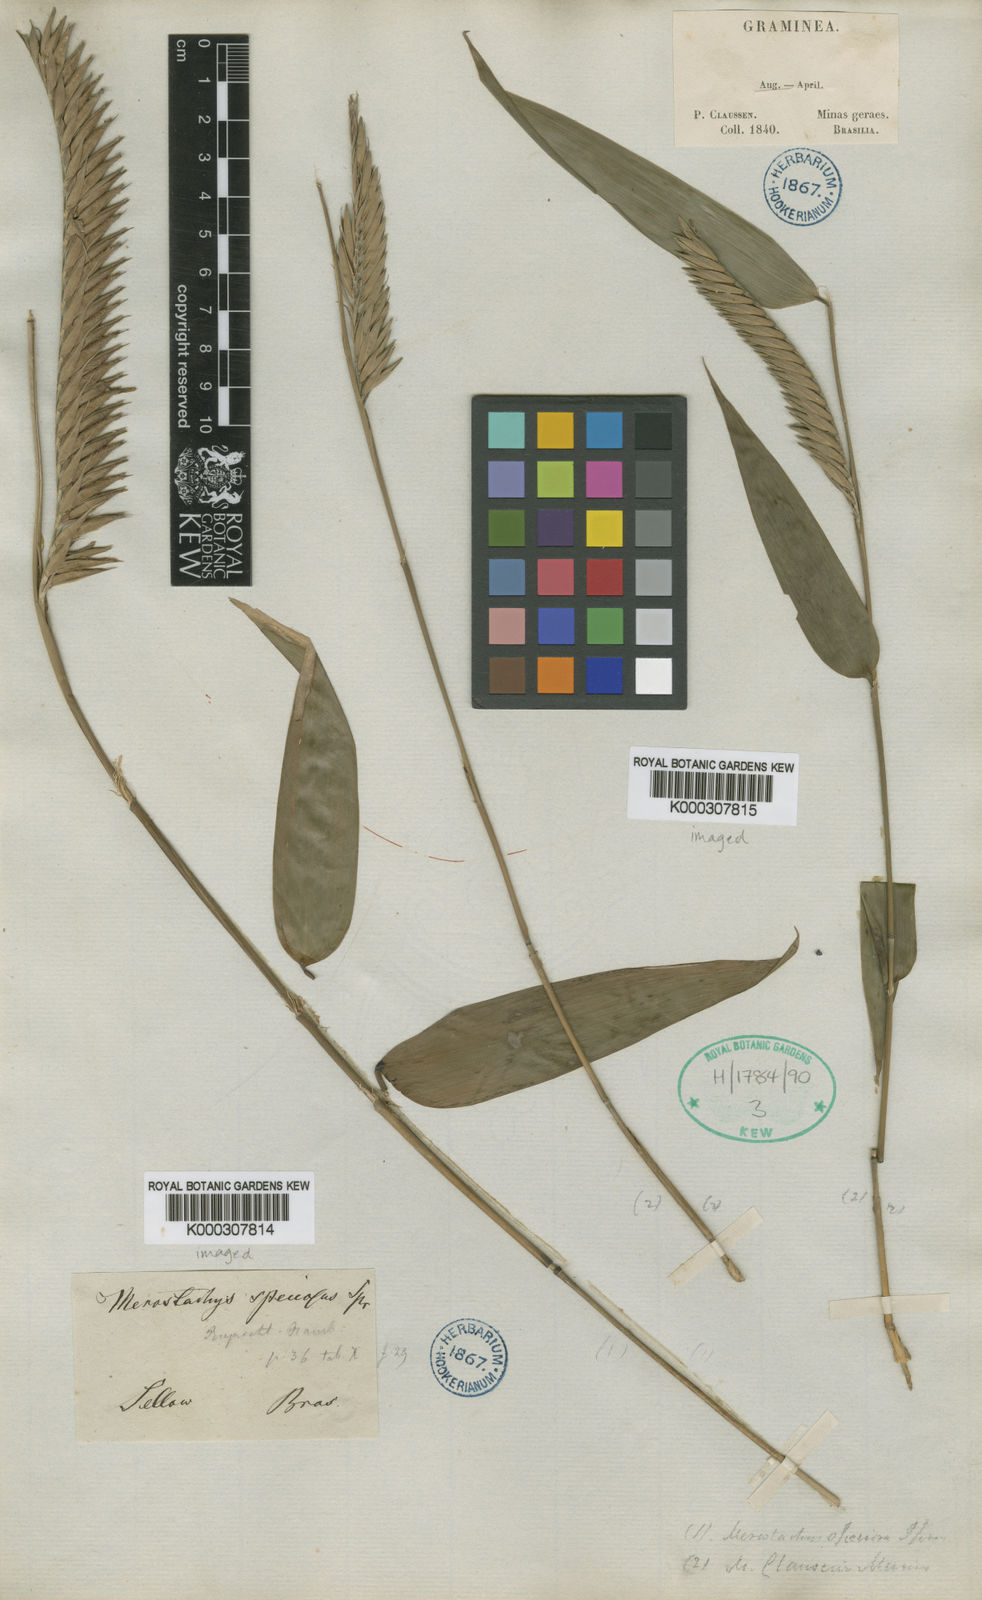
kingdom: Plantae
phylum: Tracheophyta
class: Liliopsida
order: Poales
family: Poaceae
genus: Merostachys
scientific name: Merostachys speciosa
